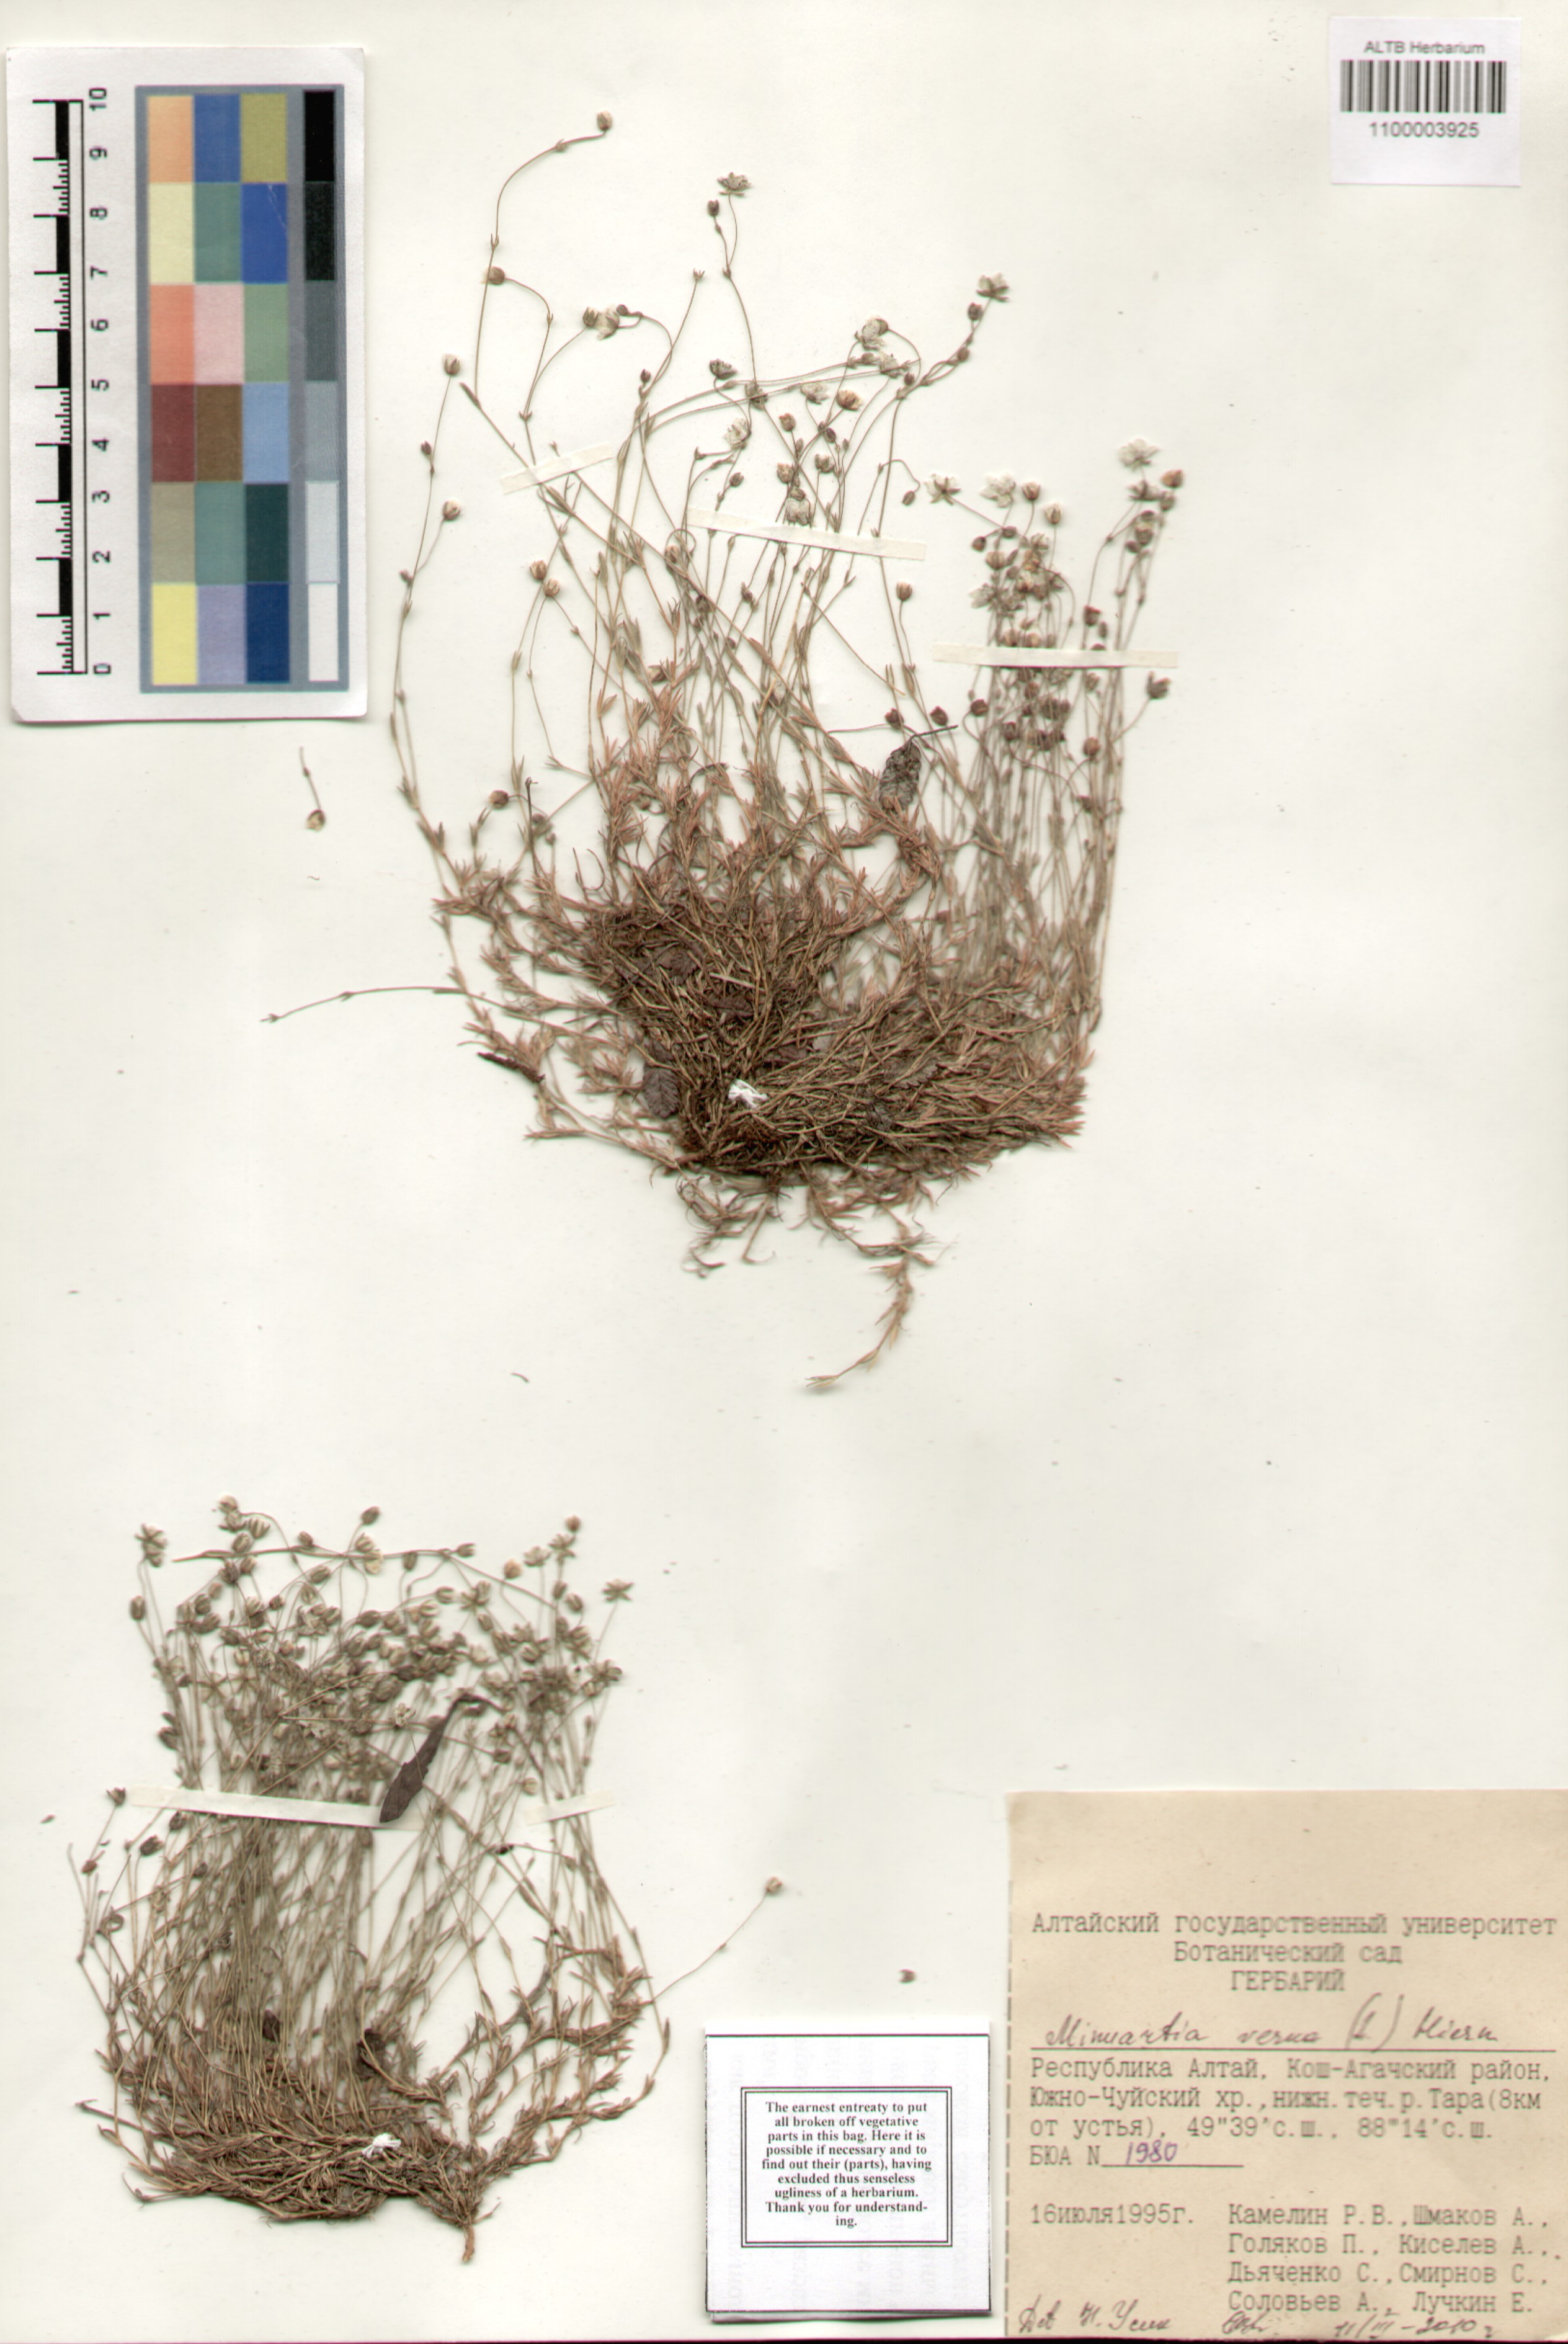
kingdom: Plantae
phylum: Tracheophyta
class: Magnoliopsida
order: Caryophyllales
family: Caryophyllaceae
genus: Sabulina
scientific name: Sabulina verna
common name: Spring sandwort
